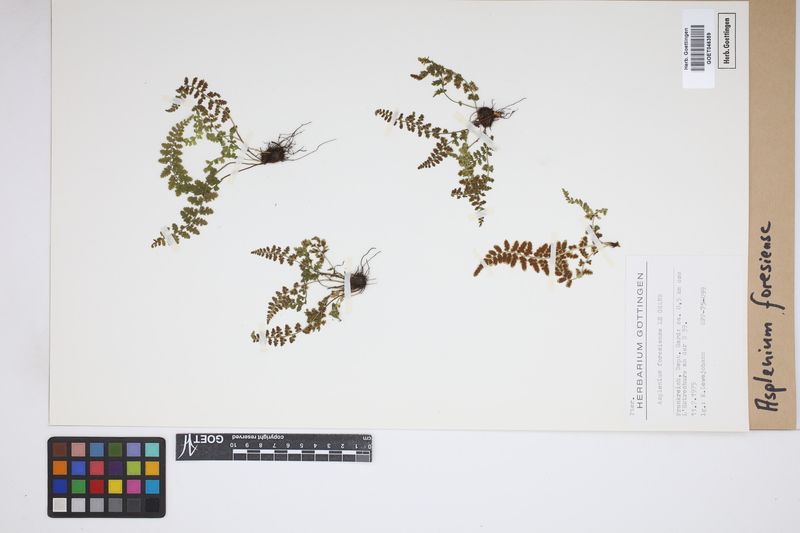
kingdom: Plantae
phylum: Tracheophyta
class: Polypodiopsida
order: Polypodiales
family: Aspleniaceae
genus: Asplenium
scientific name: Asplenium foresiense
